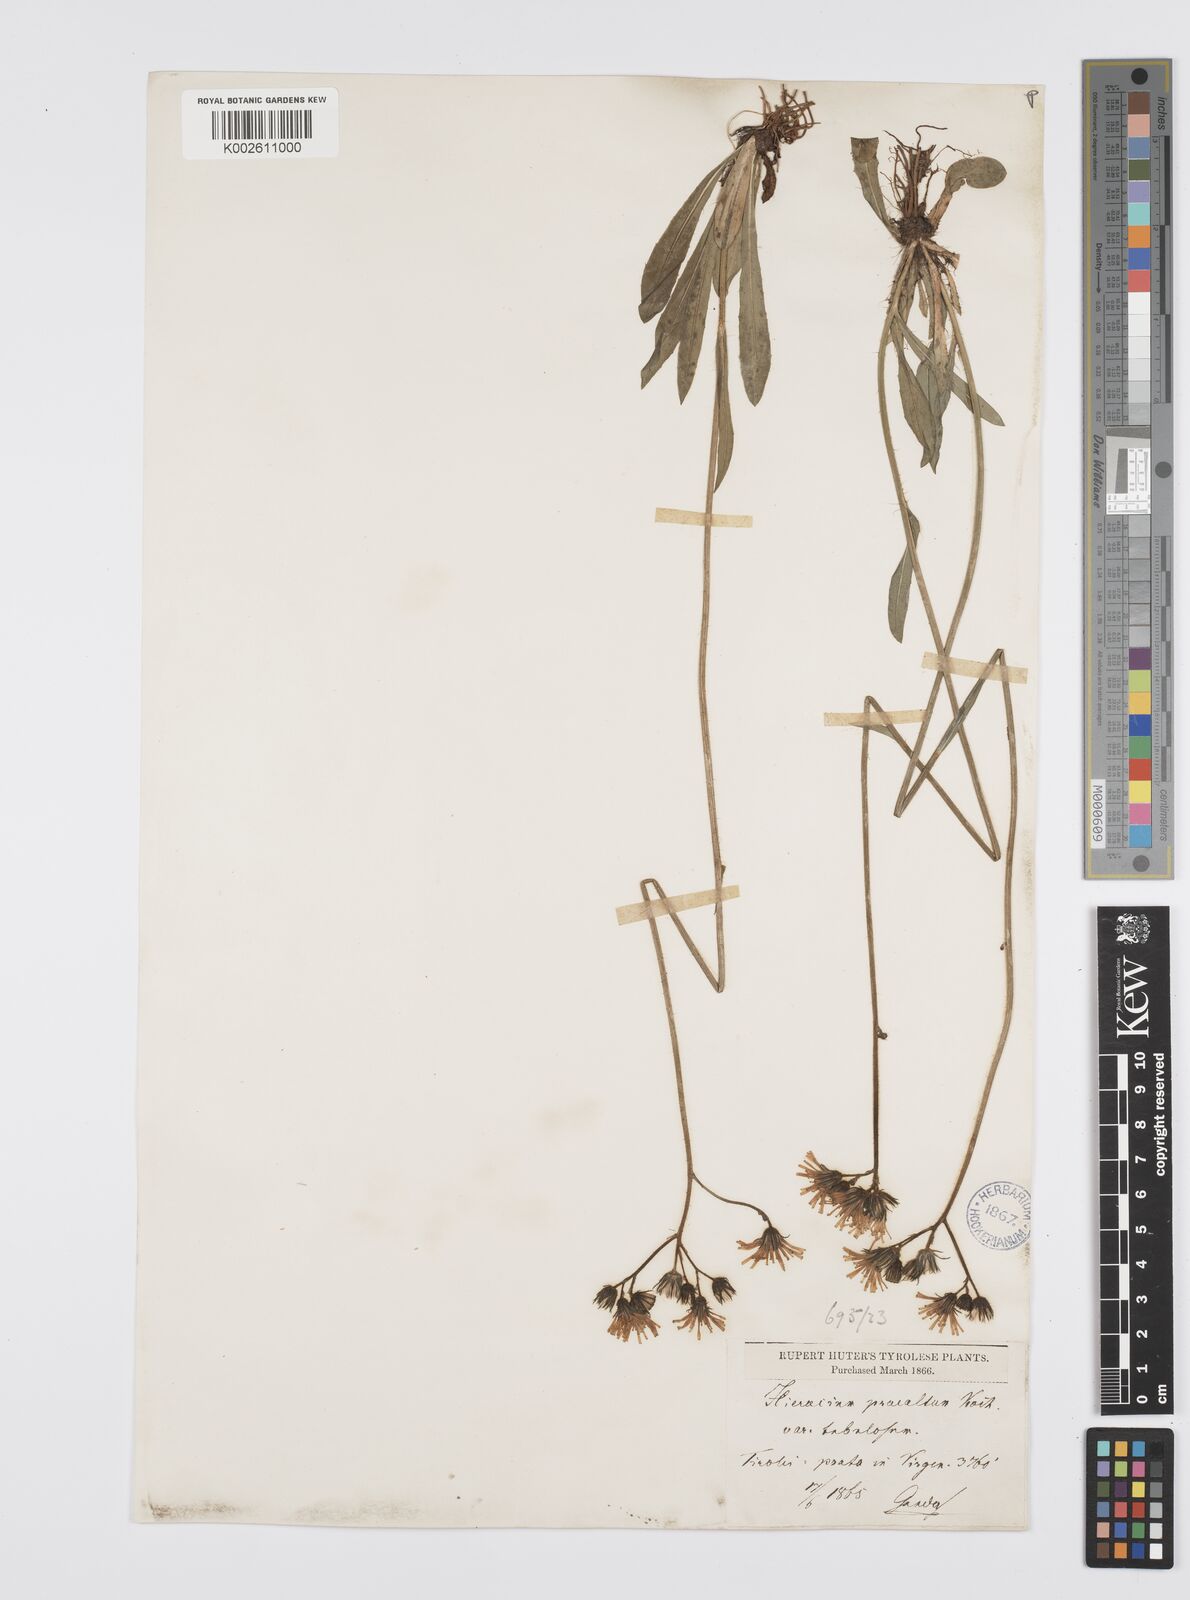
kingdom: Plantae
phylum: Tracheophyta
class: Magnoliopsida
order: Asterales
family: Asteraceae
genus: Pilosella
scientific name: Pilosella piloselloides
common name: Glaucous king-devil
